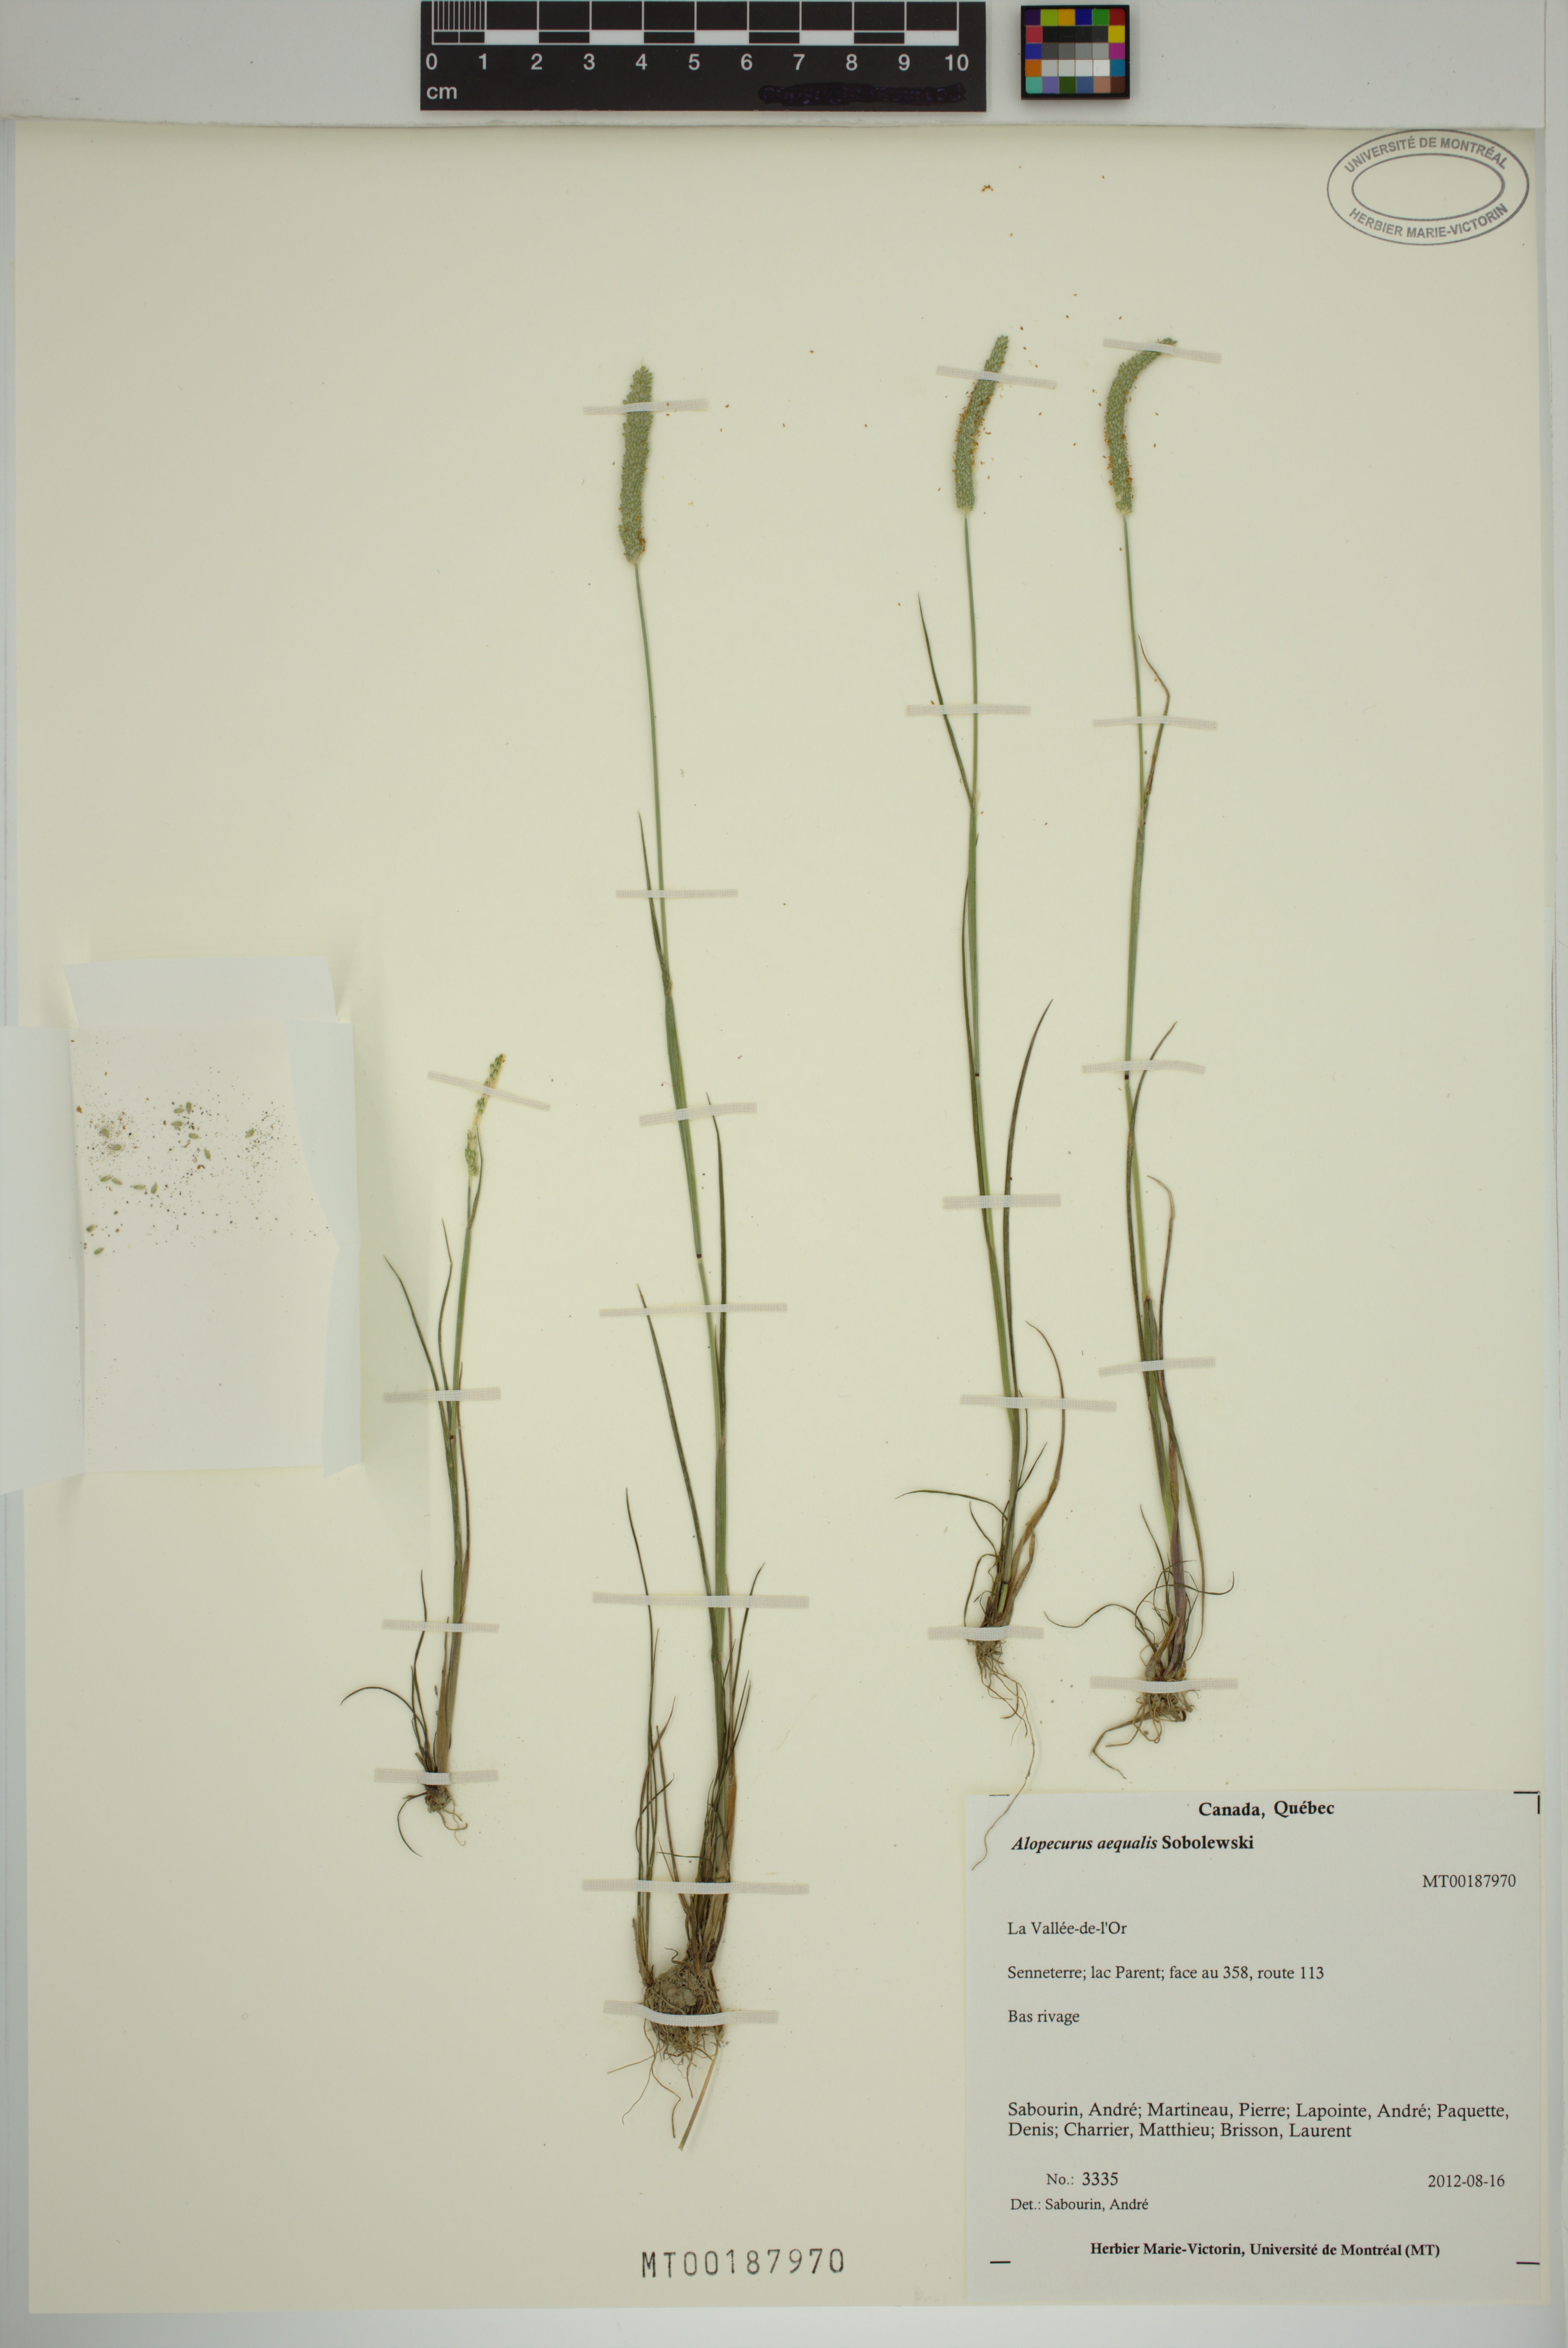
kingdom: Plantae
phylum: Tracheophyta
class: Liliopsida
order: Poales
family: Poaceae
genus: Alopecurus
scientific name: Alopecurus aequalis
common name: Orange foxtail
